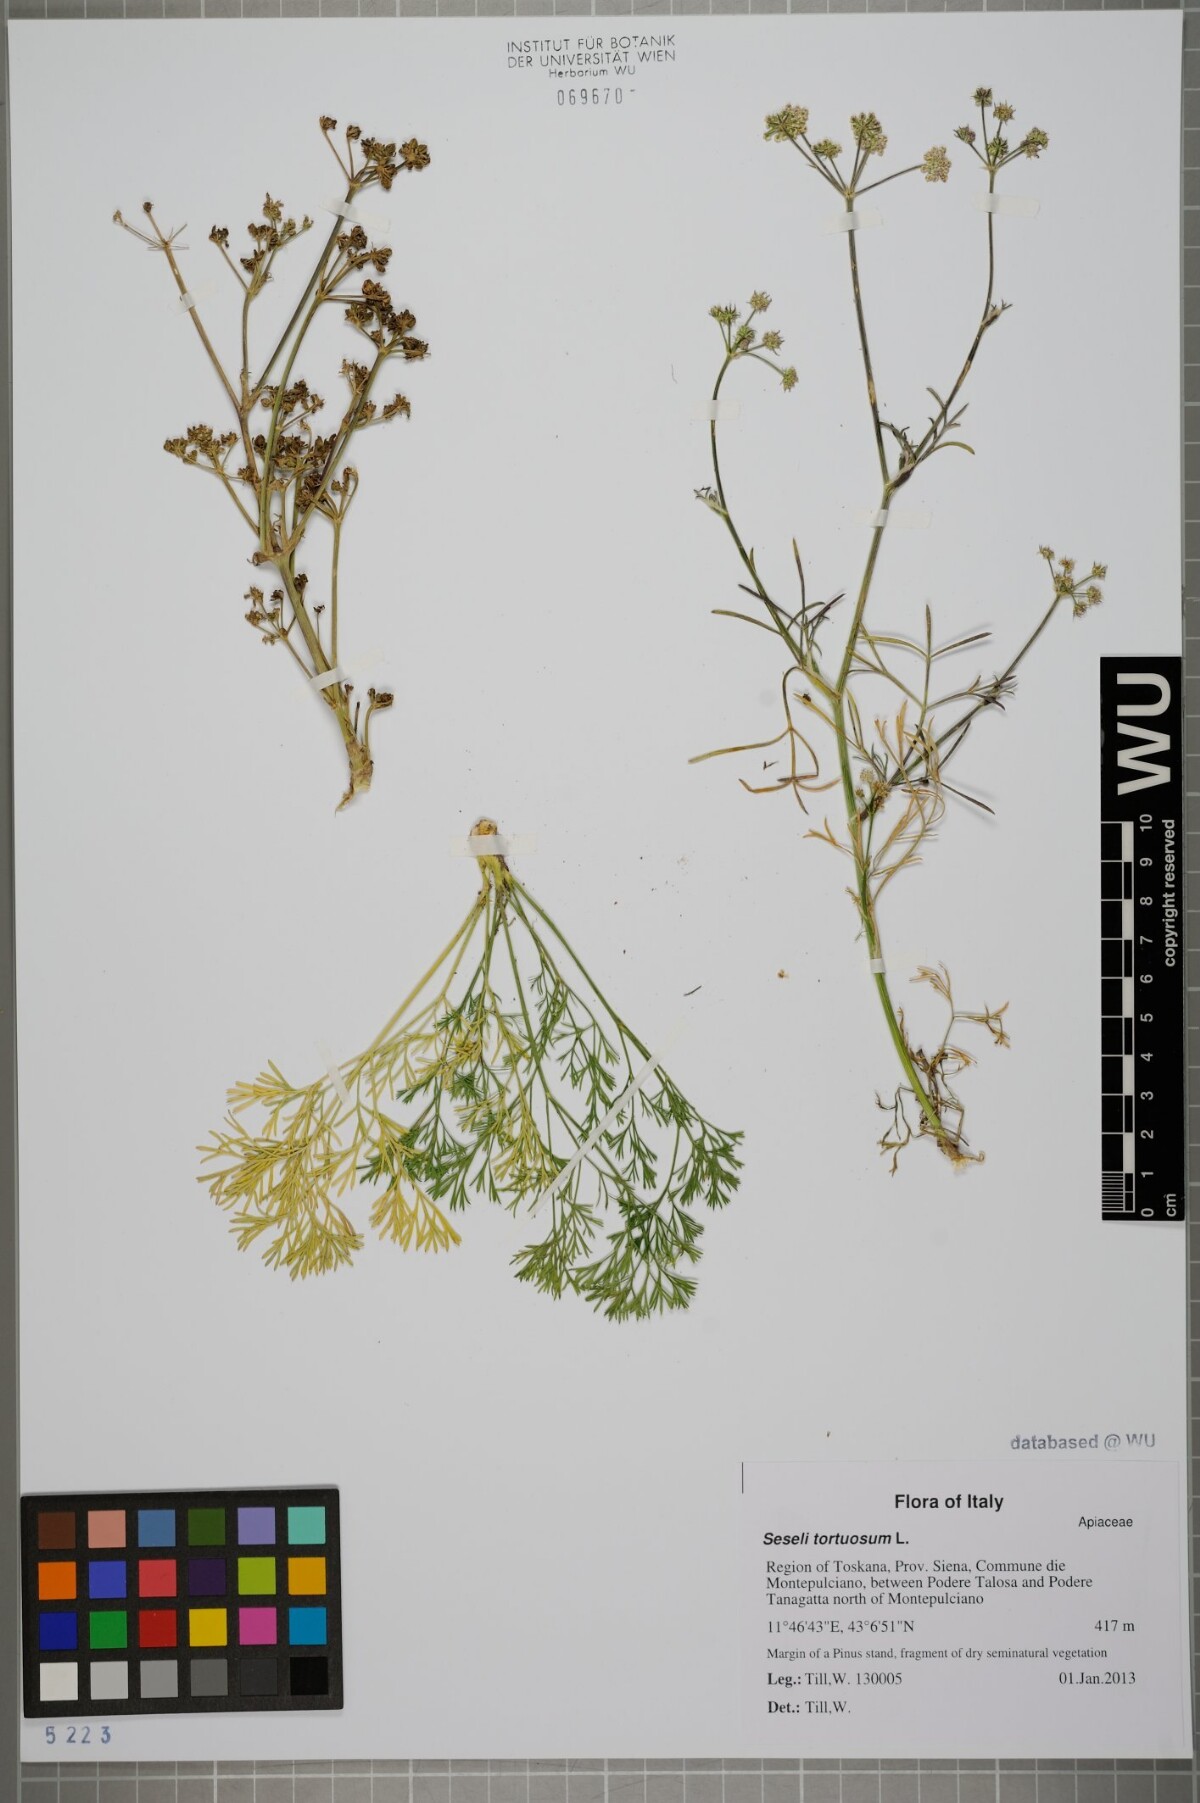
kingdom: Plantae
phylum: Tracheophyta
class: Magnoliopsida
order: Apiales
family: Apiaceae
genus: Seseli
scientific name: Seseli tortuosum
